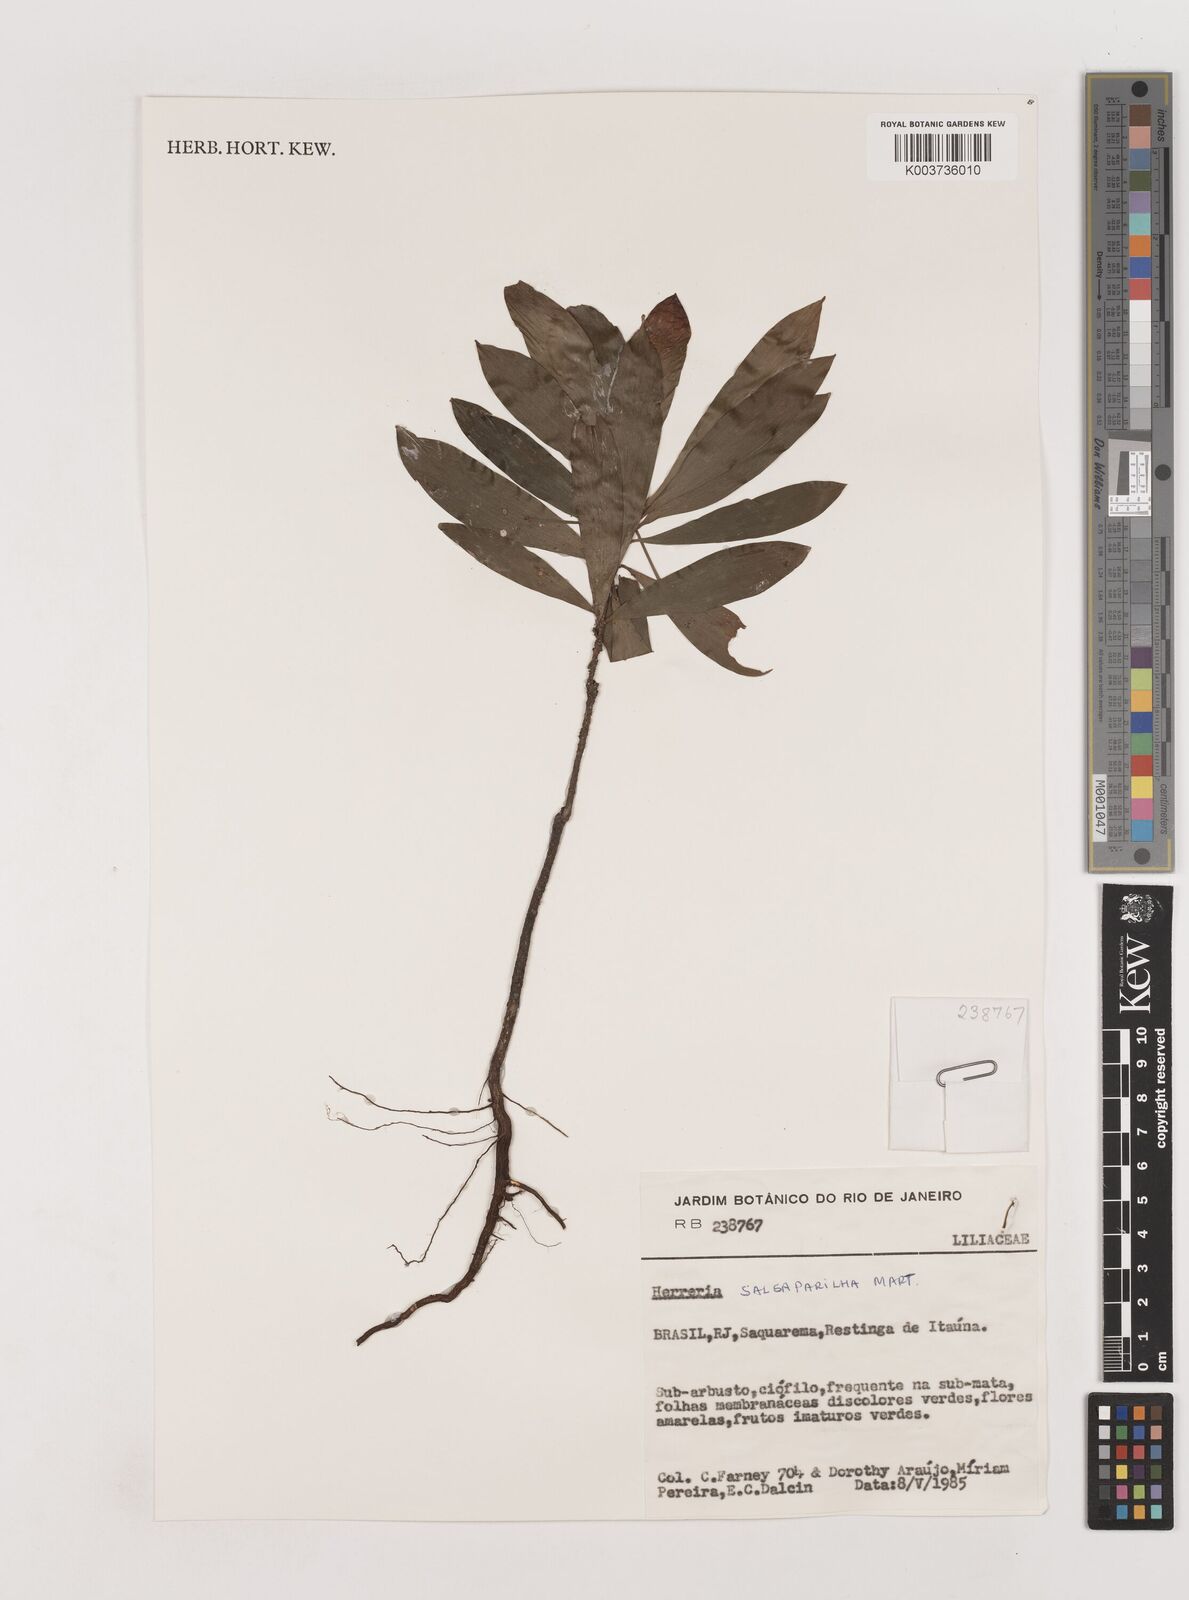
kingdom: Plantae
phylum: Tracheophyta
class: Liliopsida
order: Asparagales
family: Asparagaceae
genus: Herreria
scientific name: Herreria salsaparilha
